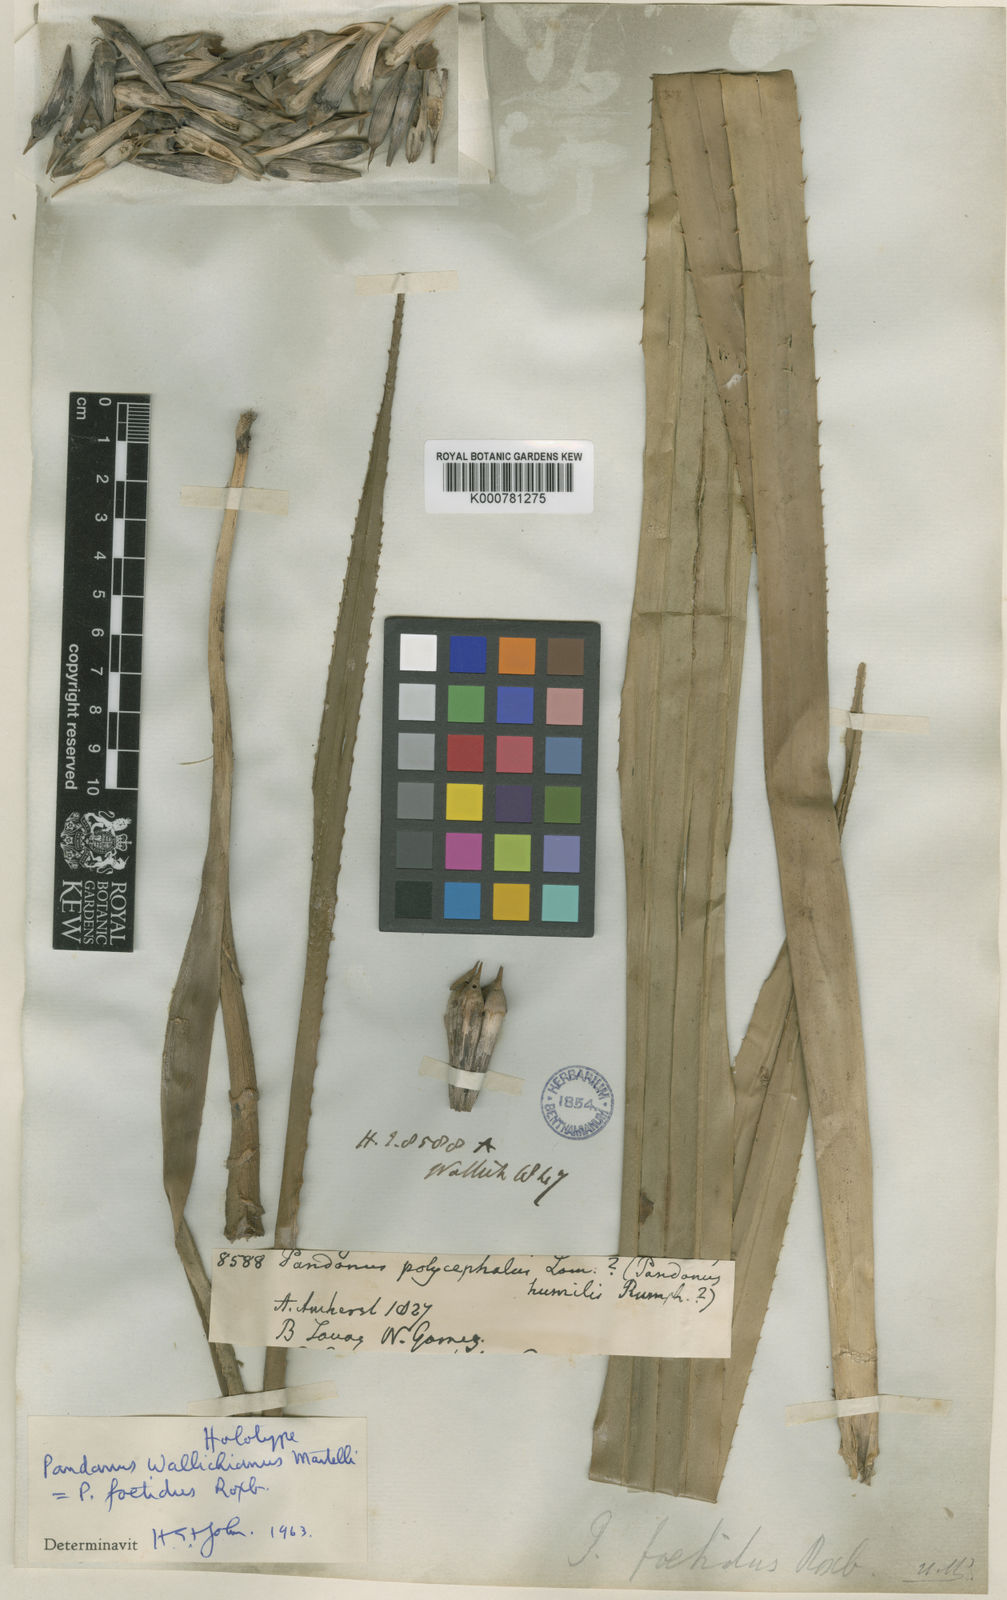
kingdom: Plantae
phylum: Tracheophyta
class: Liliopsida
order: Pandanales
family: Pandanaceae
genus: Benstonea
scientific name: Benstonea foetida
